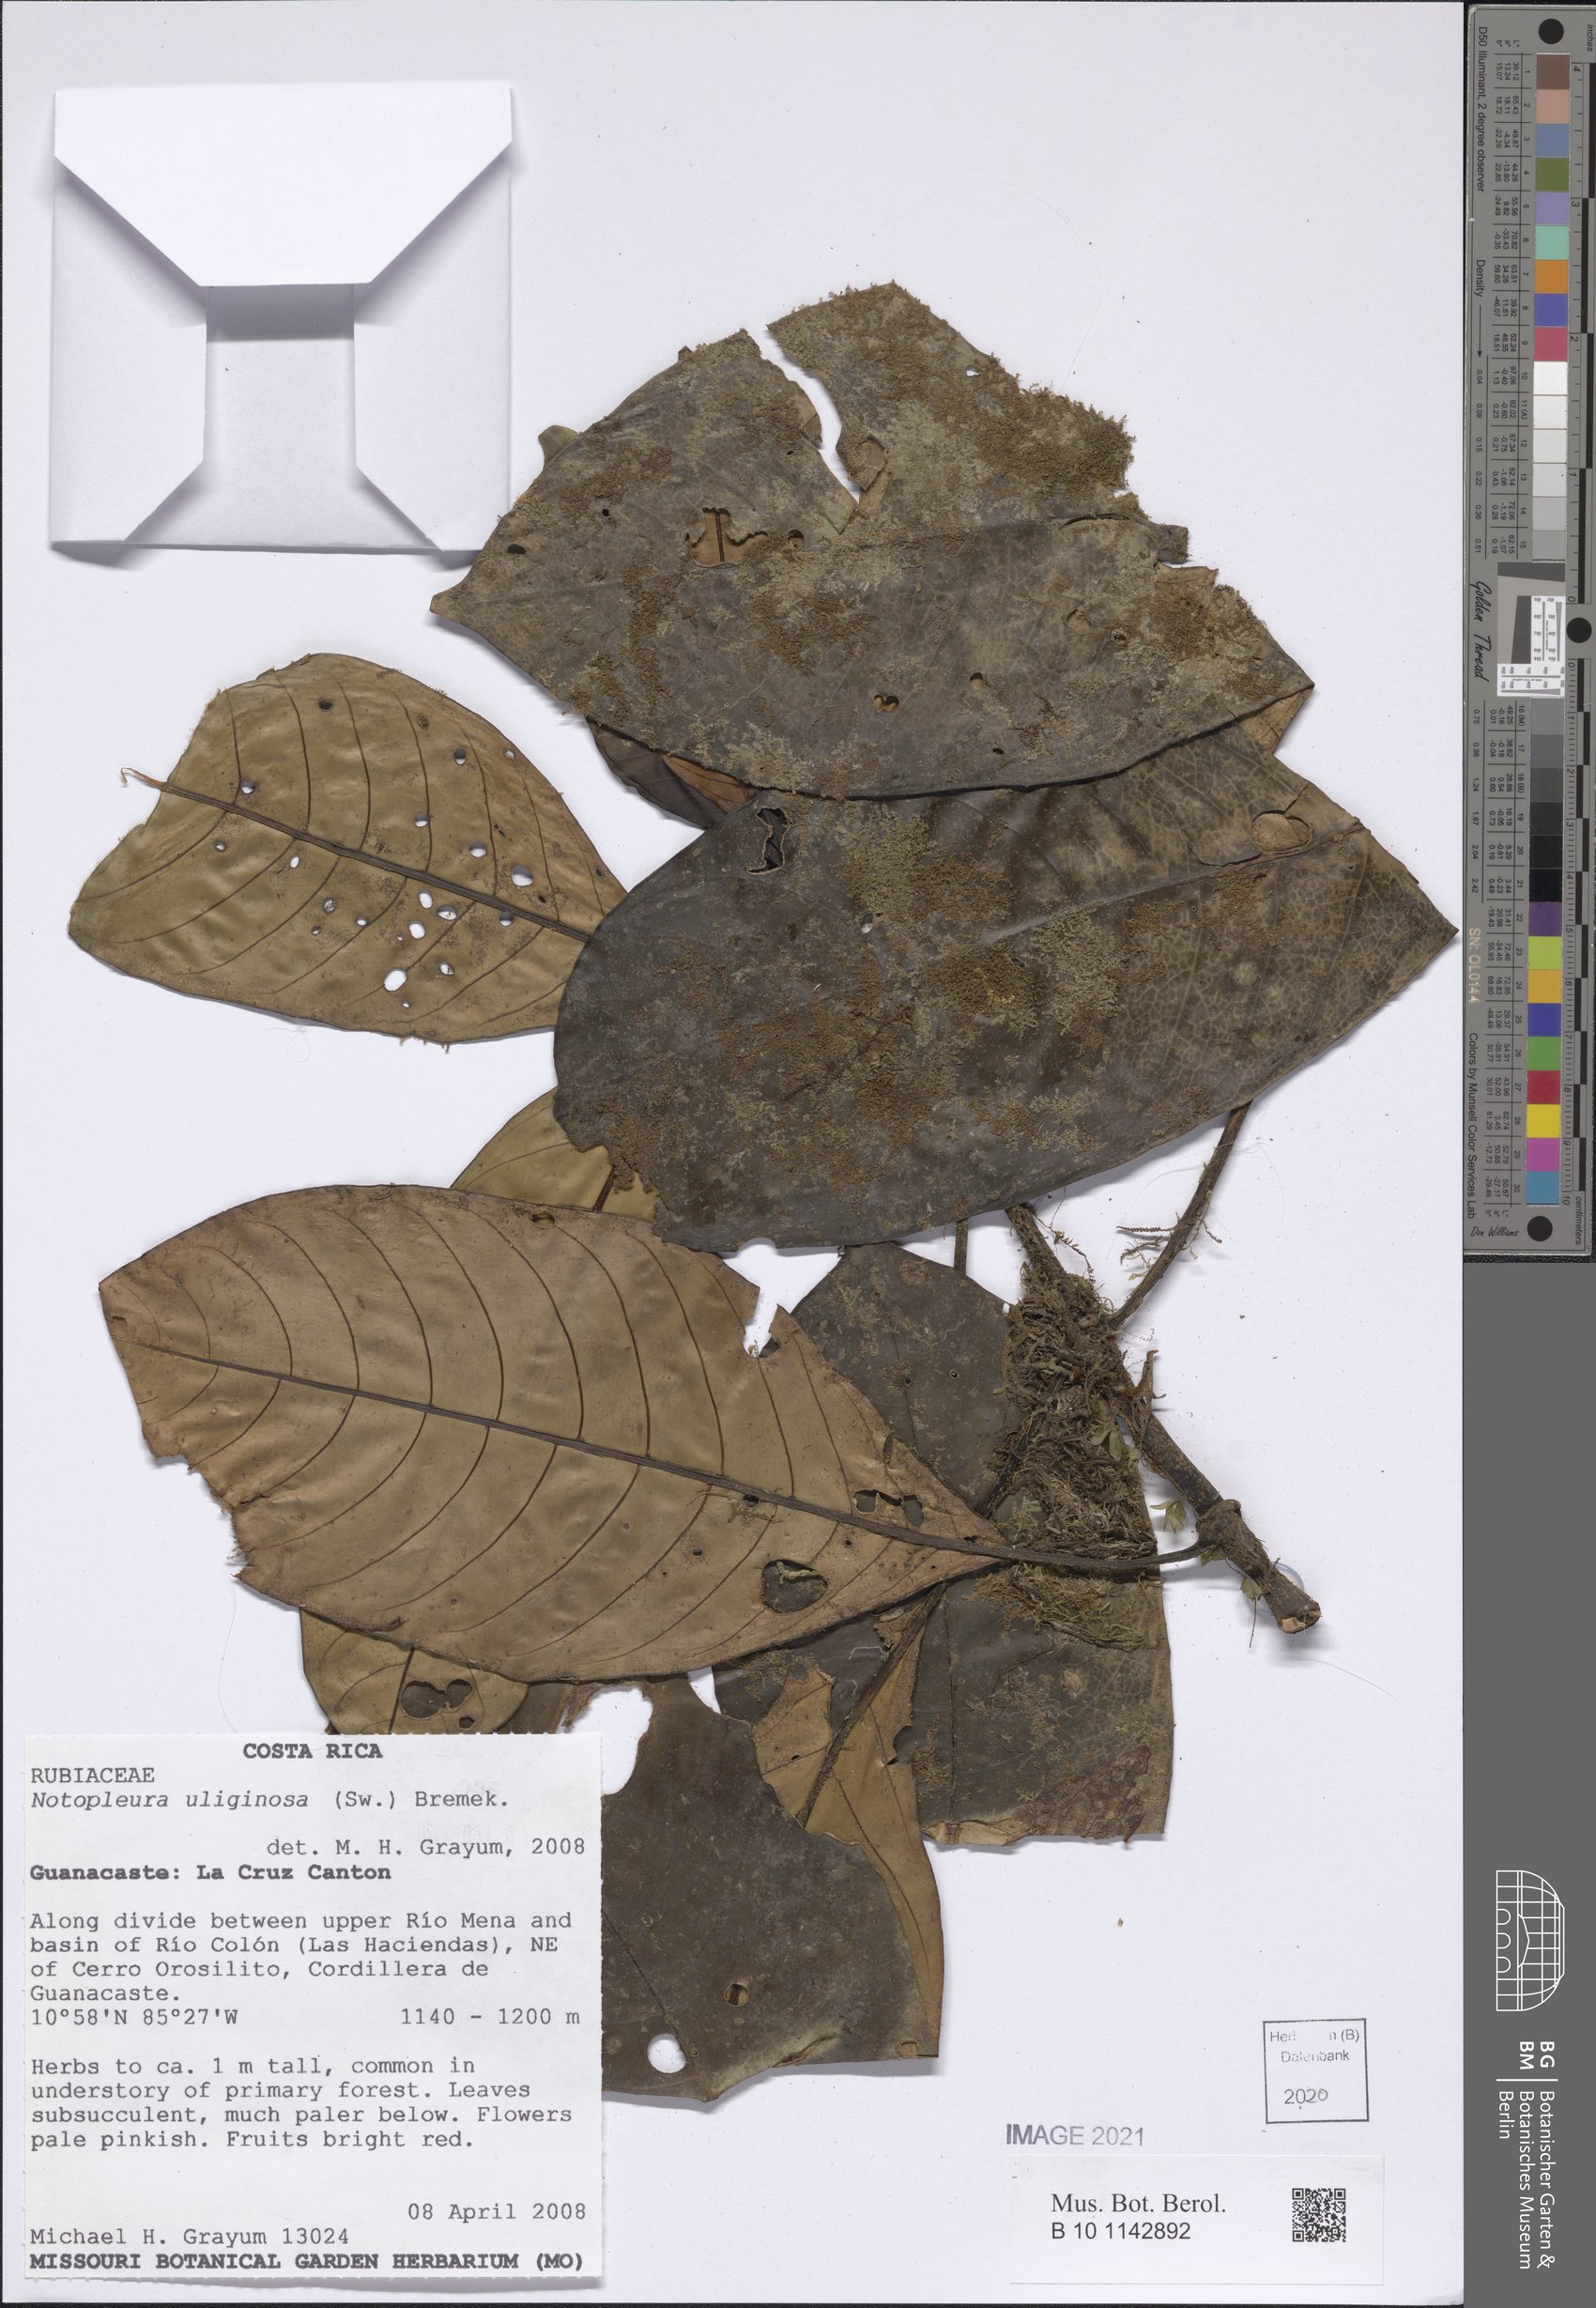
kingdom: Plantae
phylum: Tracheophyta
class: Magnoliopsida
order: Gentianales
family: Rubiaceae
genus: Notopleura
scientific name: Notopleura uliginosa
